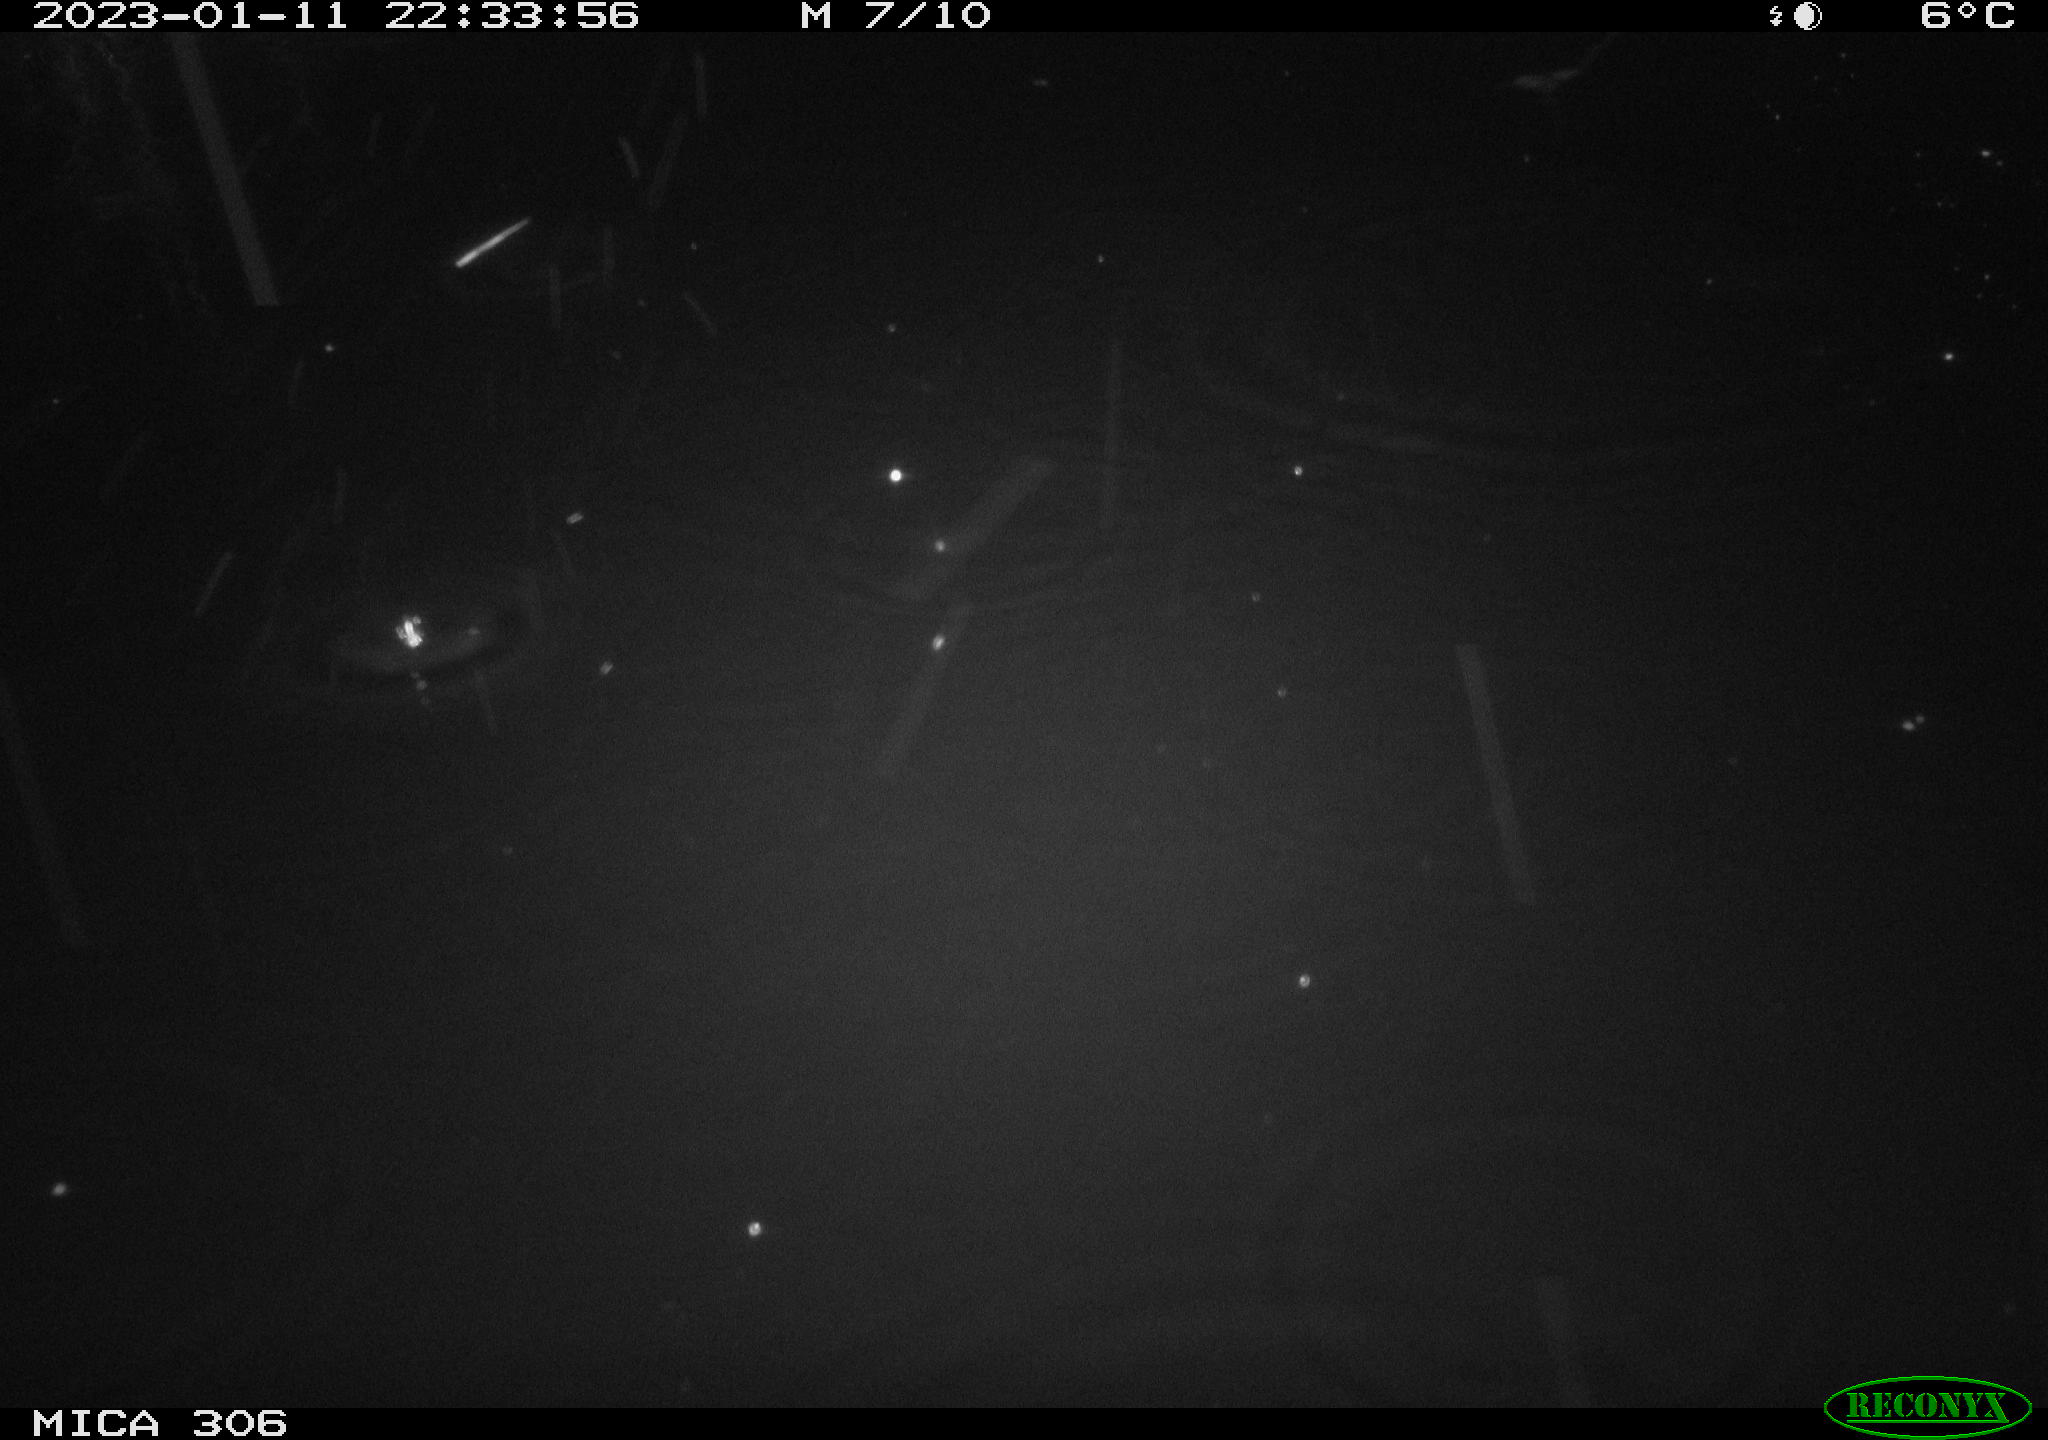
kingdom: Animalia
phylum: Chordata
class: Mammalia
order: Rodentia
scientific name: Rodentia
